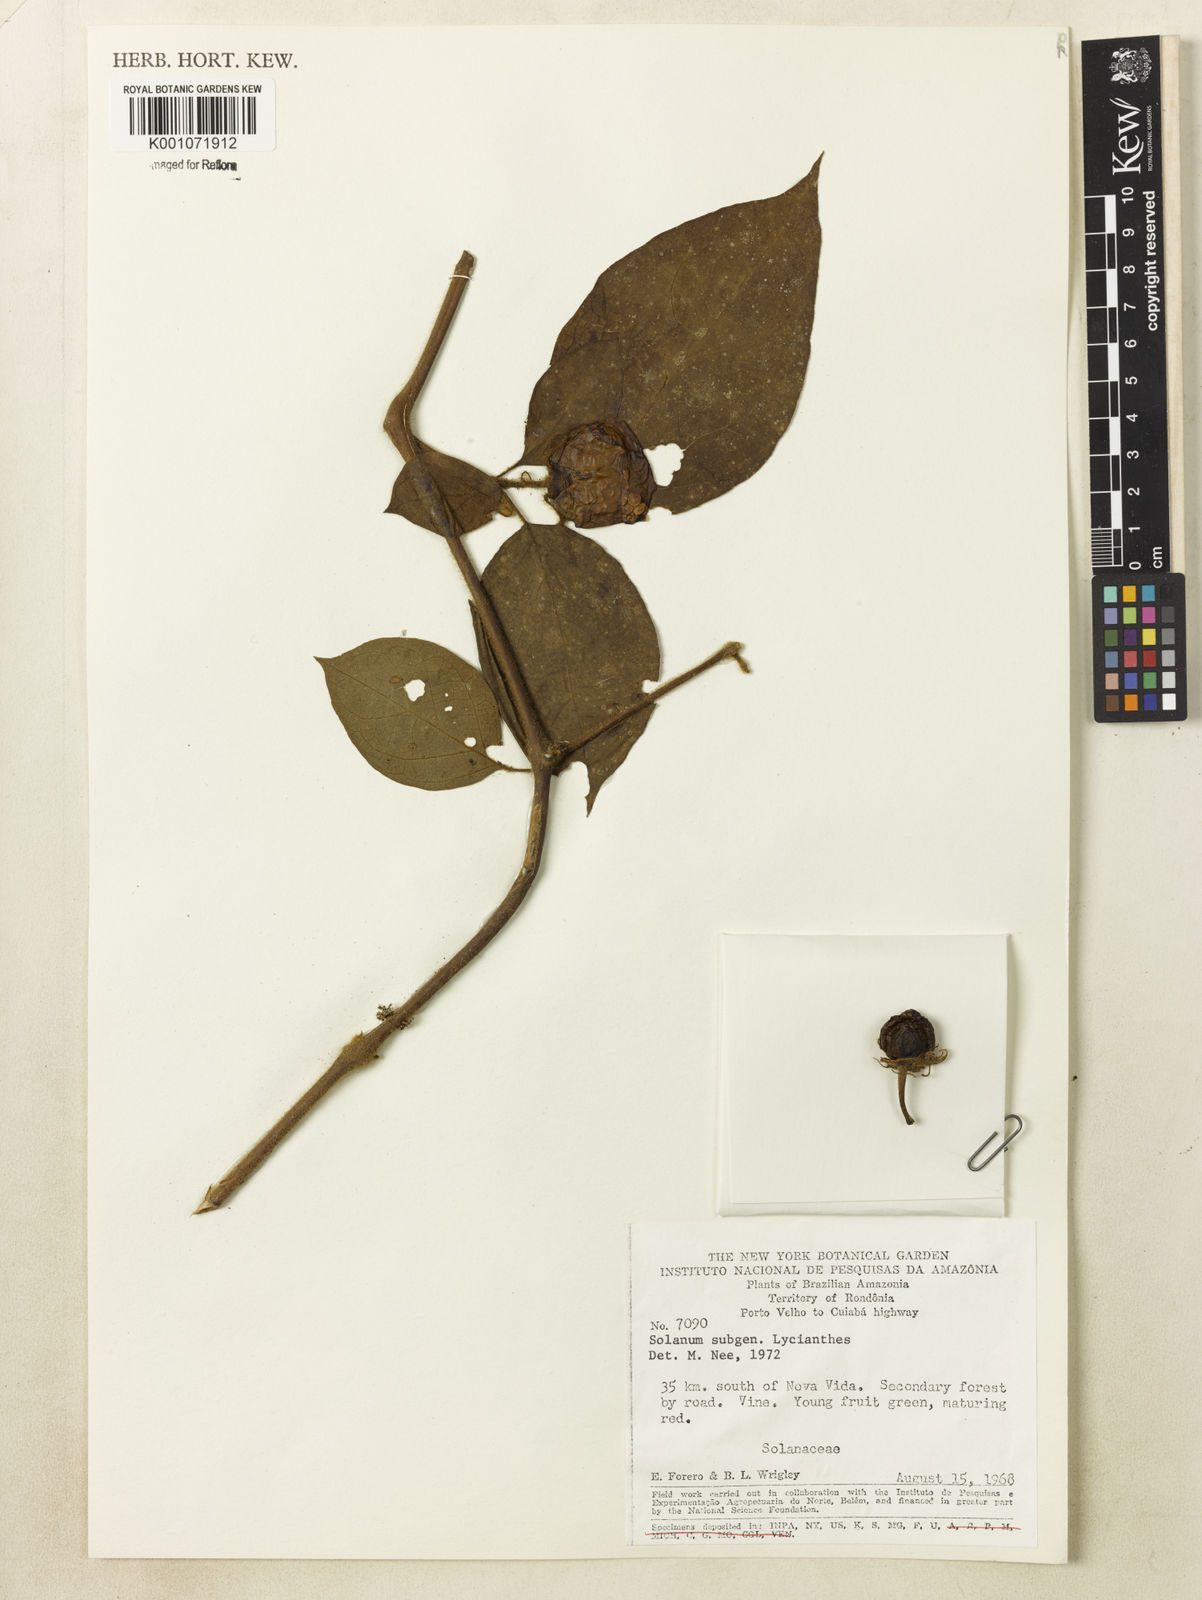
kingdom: Plantae
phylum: Tracheophyta
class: Magnoliopsida
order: Solanales
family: Solanaceae
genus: Lycianthes
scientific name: Lycianthes
